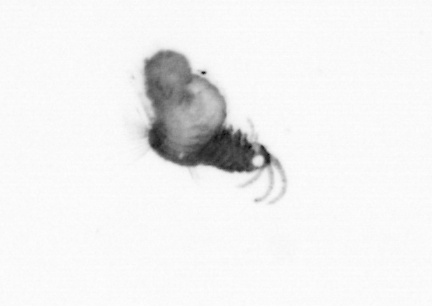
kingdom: Animalia
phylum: Annelida
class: Polychaeta
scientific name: Polychaeta
